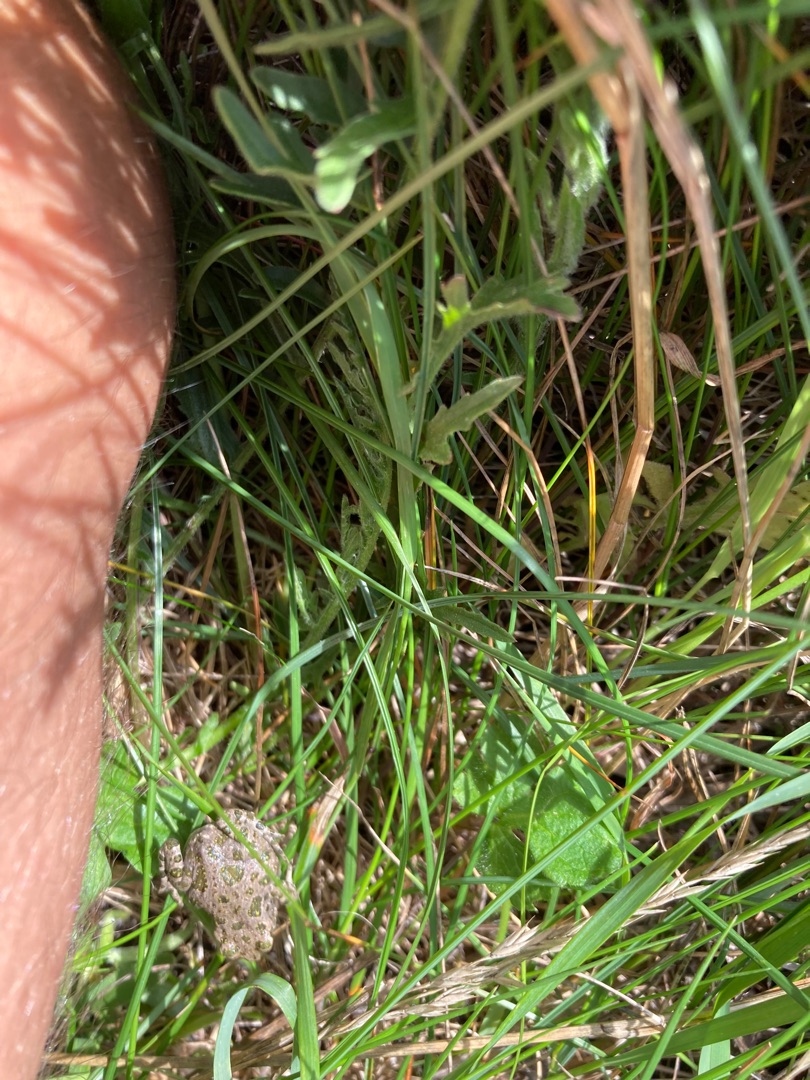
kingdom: Animalia
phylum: Chordata
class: Amphibia
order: Anura
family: Bufonidae
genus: Bufotes
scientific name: Bufotes viridis
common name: Grønbroget tudse
